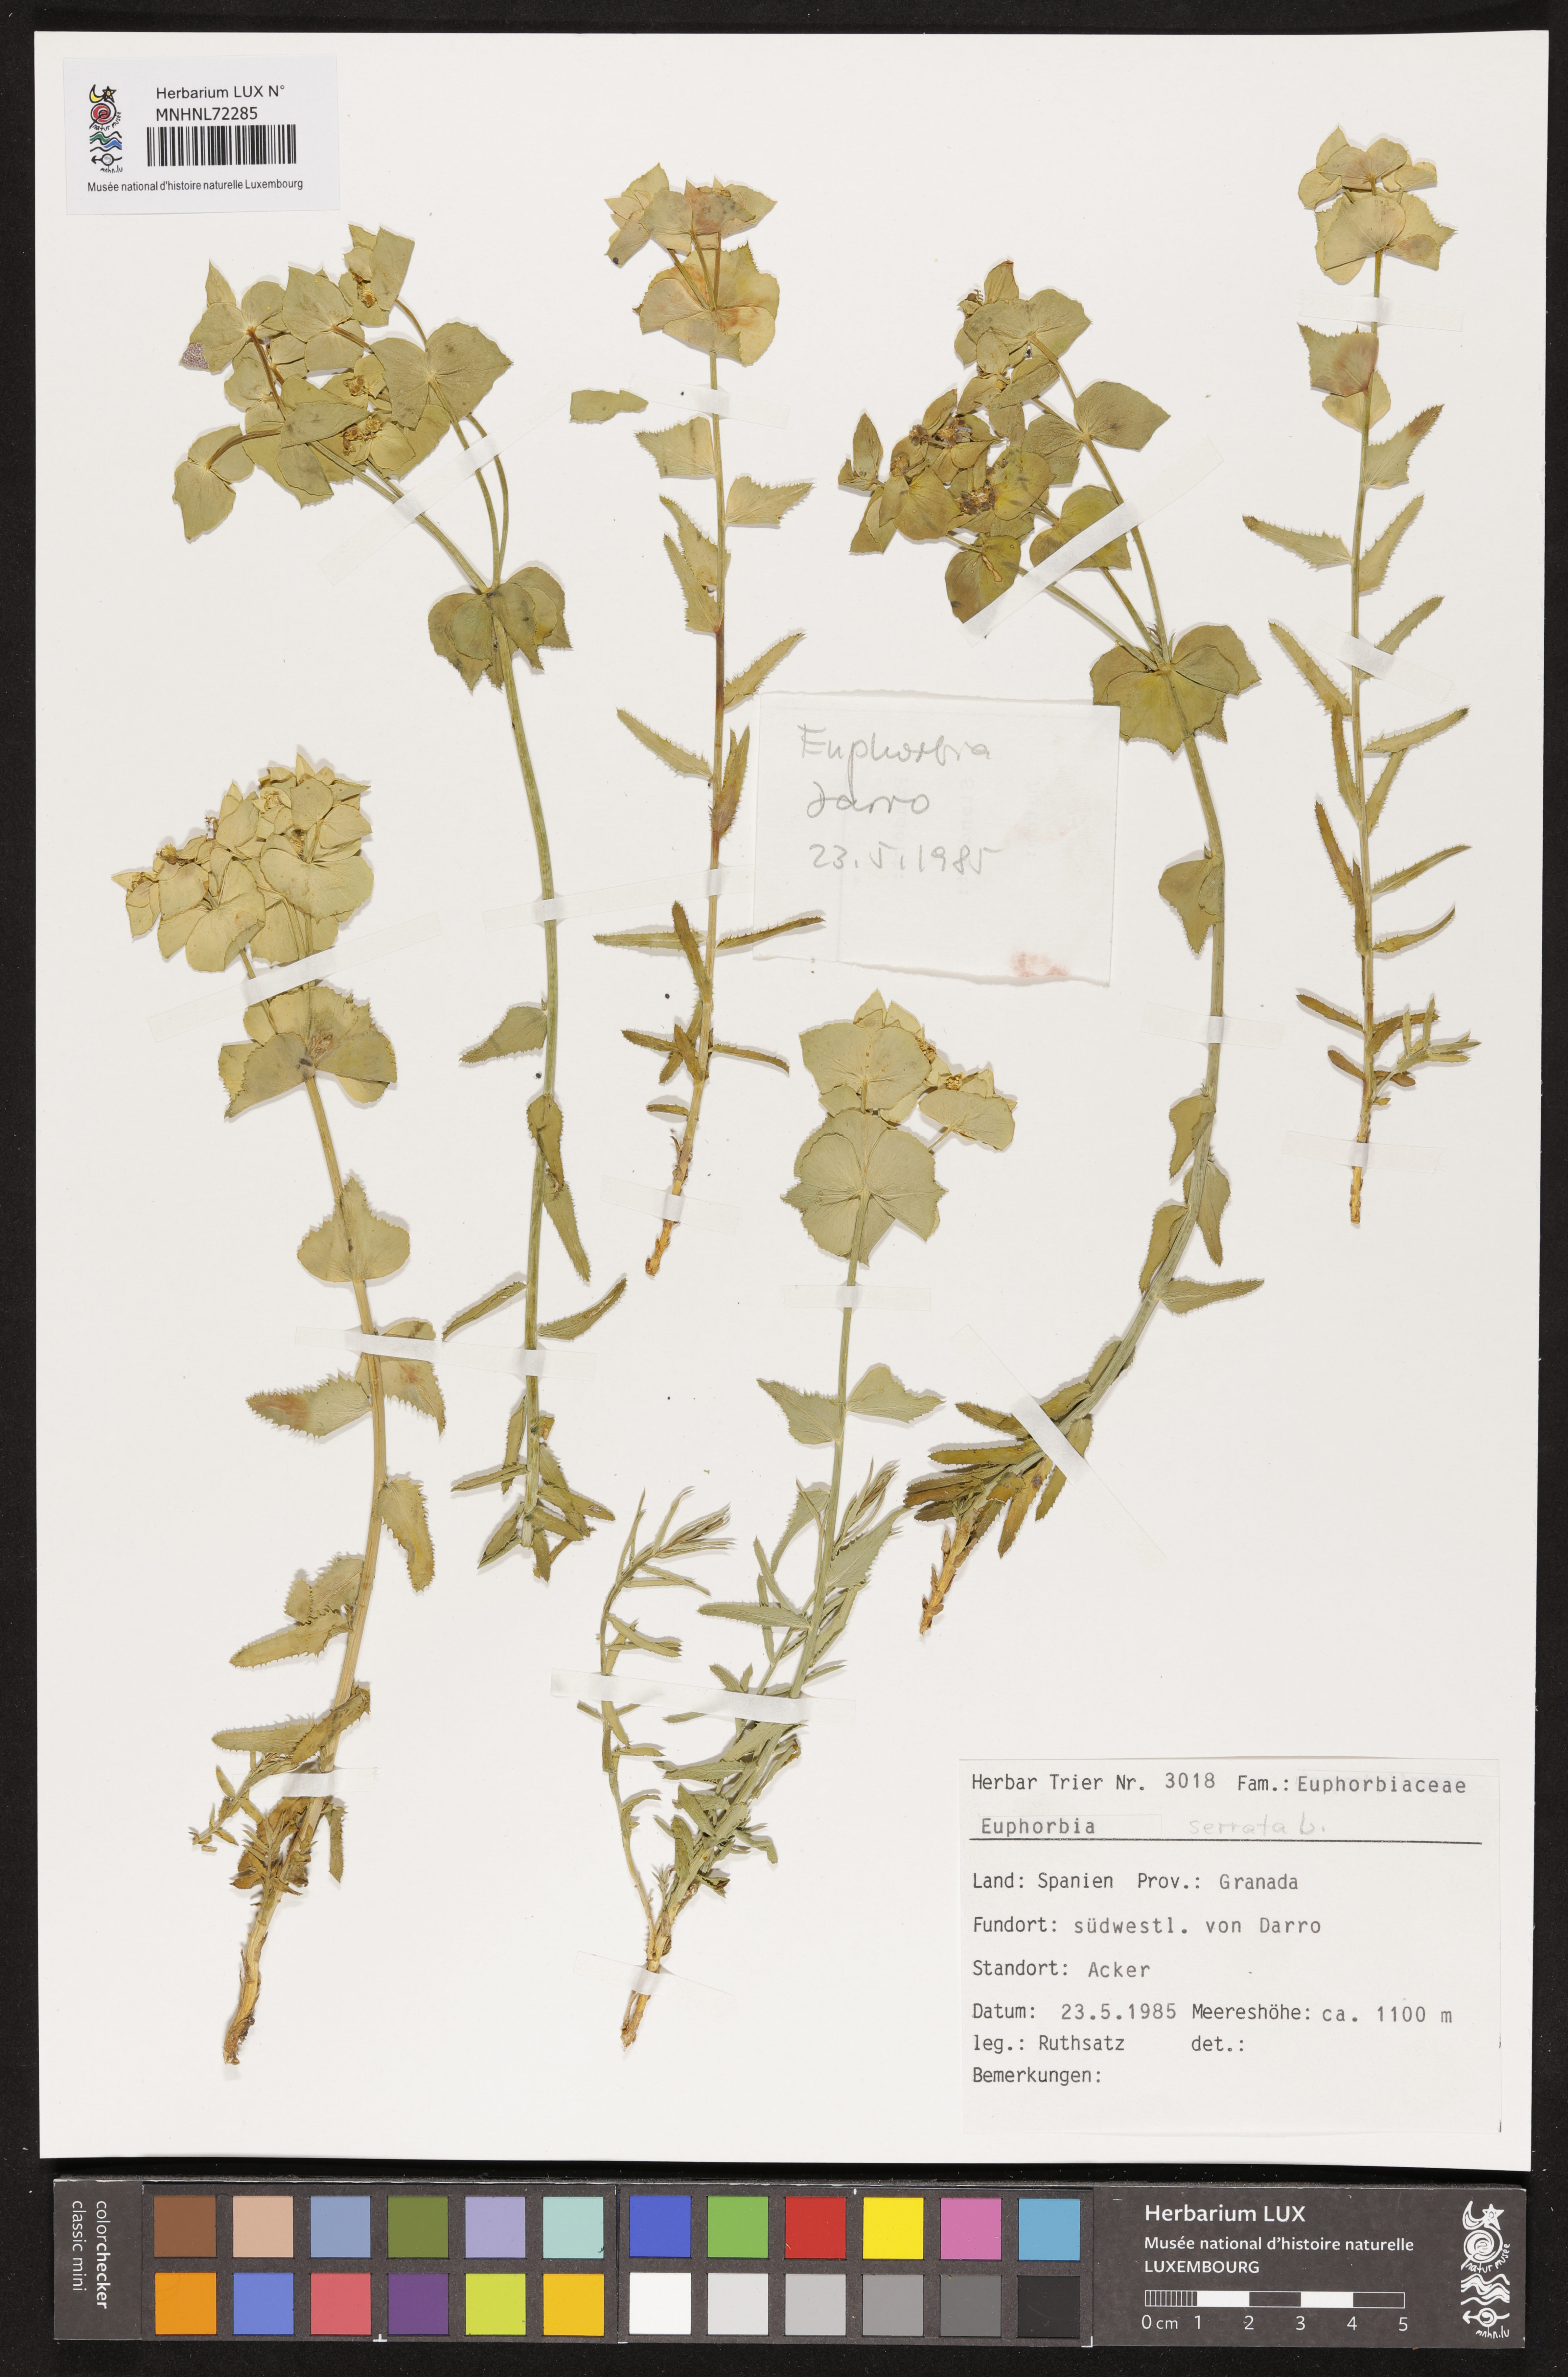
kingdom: Plantae
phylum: Tracheophyta
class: Magnoliopsida
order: Malpighiales
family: Euphorbiaceae
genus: Euphorbia
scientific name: Euphorbia serrata
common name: Serrate spurge
